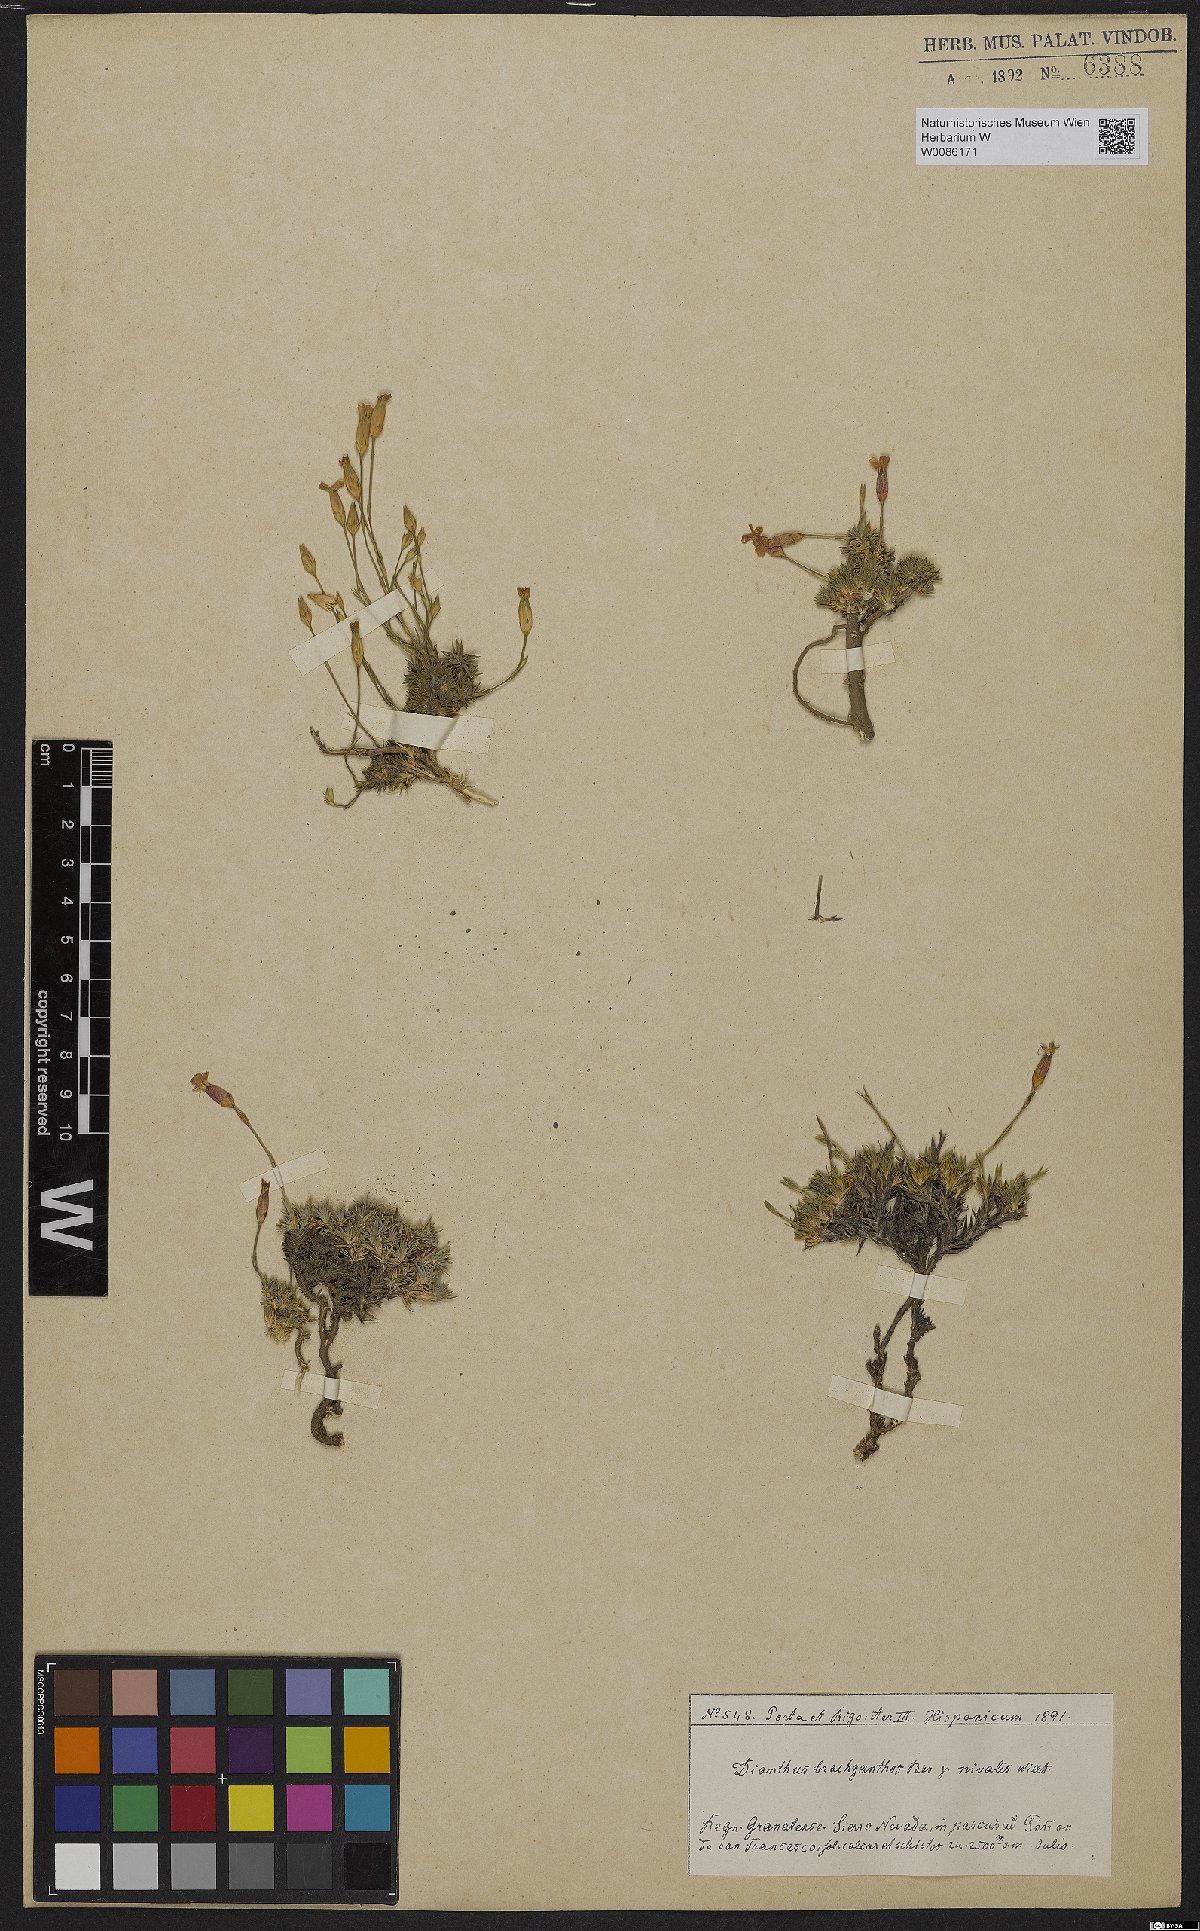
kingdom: Plantae
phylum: Tracheophyta
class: Magnoliopsida
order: Caryophyllales
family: Caryophyllaceae
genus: Dianthus
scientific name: Dianthus subacaulis
